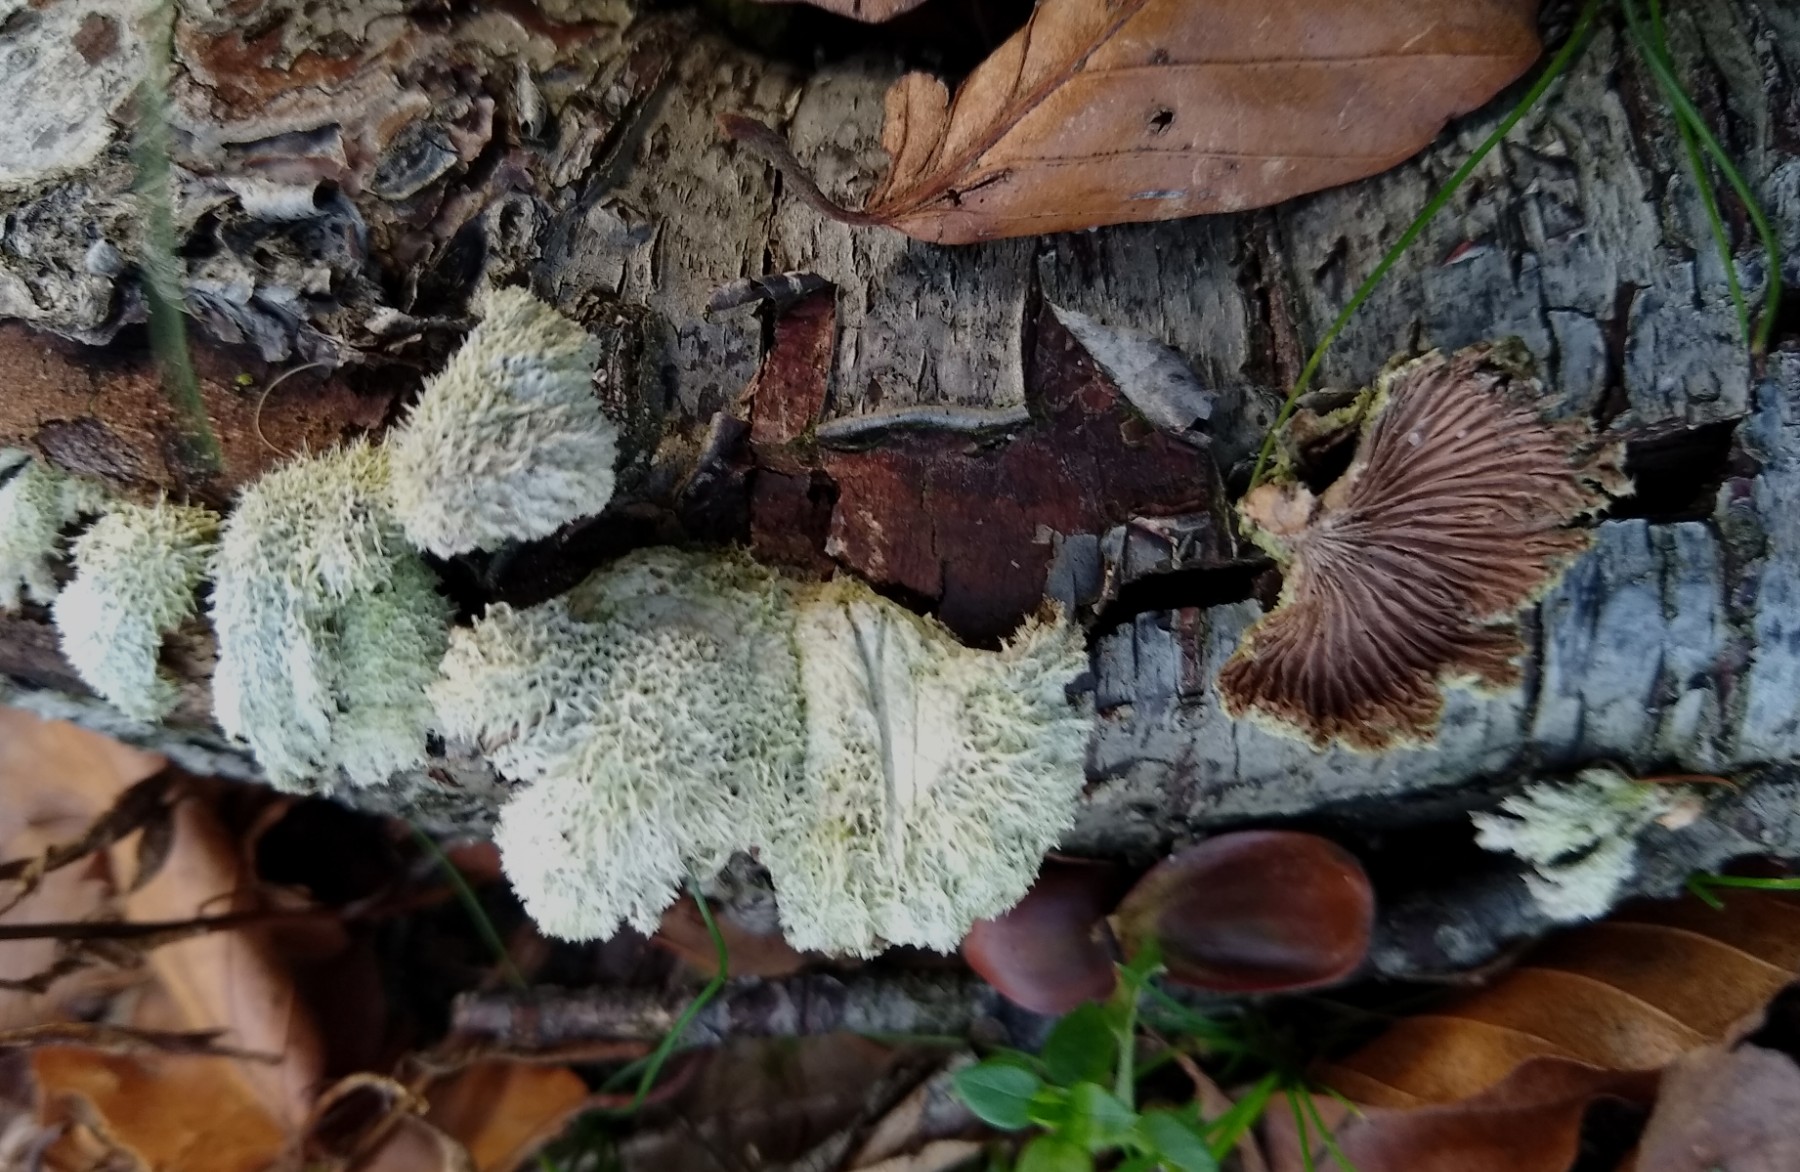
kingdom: Fungi
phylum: Basidiomycota
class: Agaricomycetes
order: Agaricales
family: Schizophyllaceae
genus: Schizophyllum
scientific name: Schizophyllum commune
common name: kløvblad
